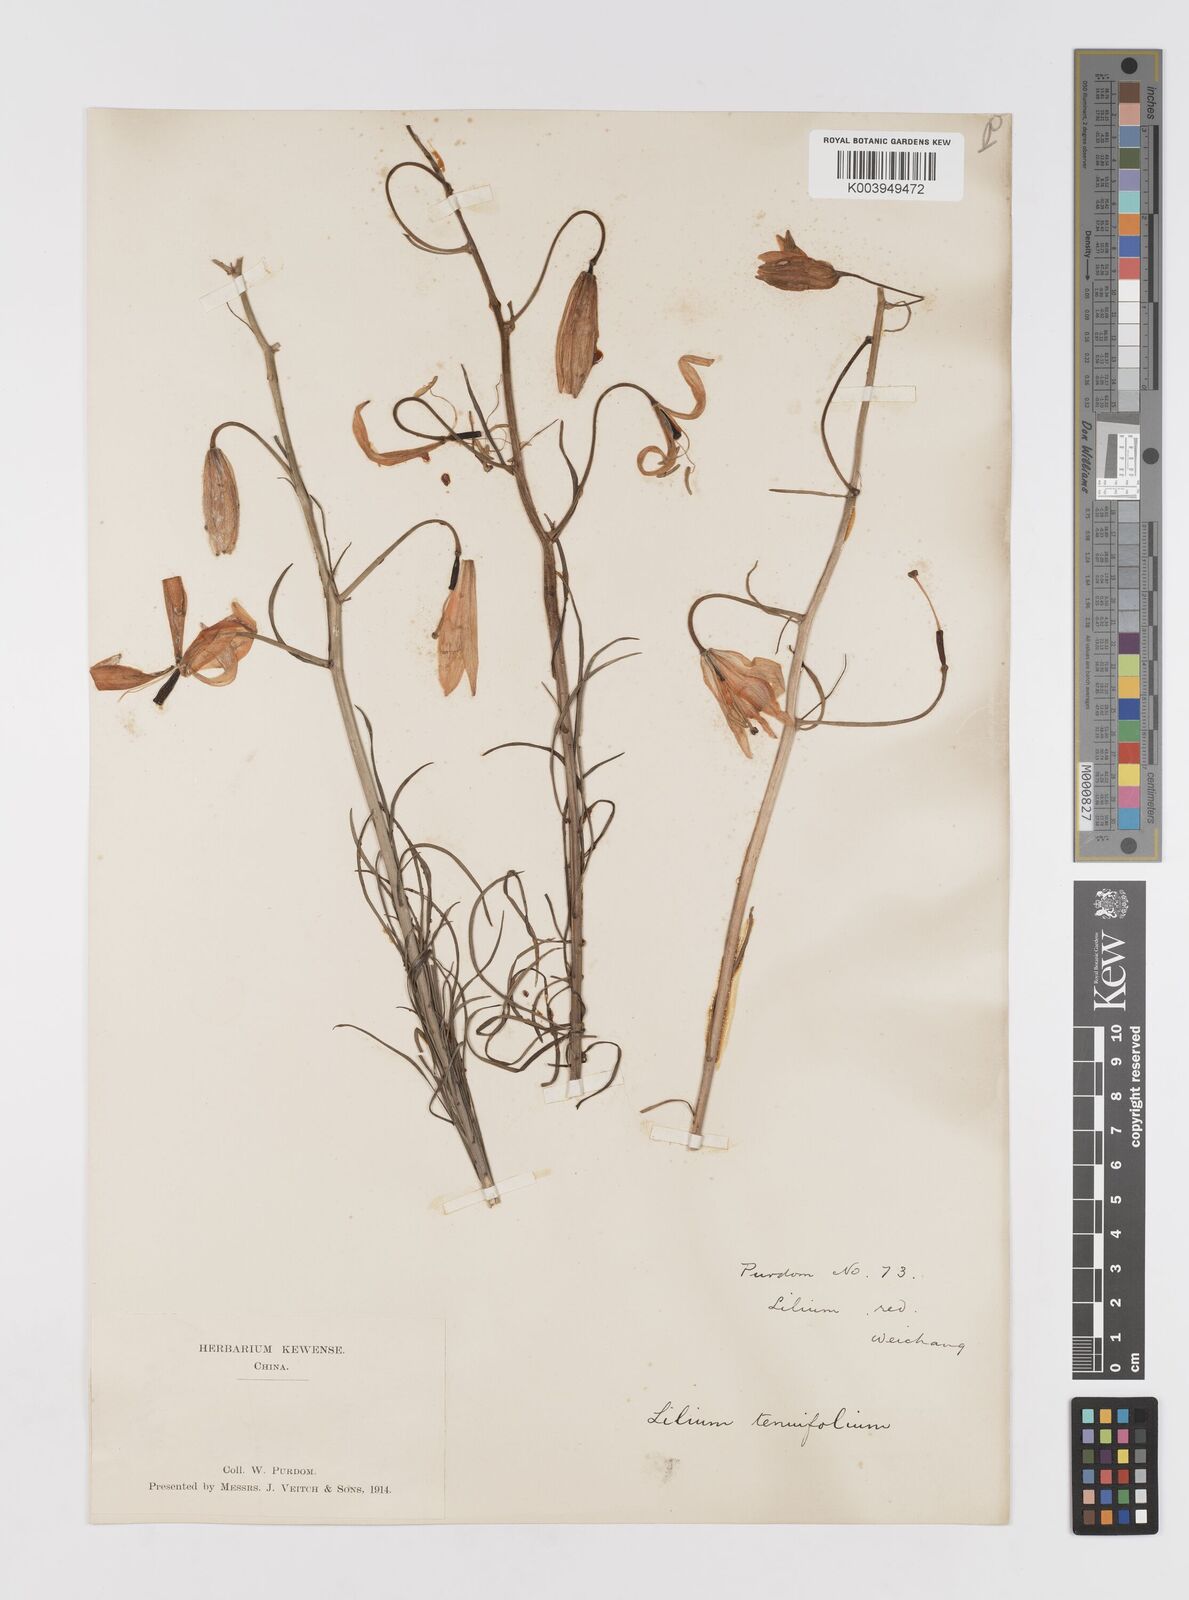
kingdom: Plantae
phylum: Tracheophyta
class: Liliopsida
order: Liliales
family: Liliaceae
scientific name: Liliaceae
